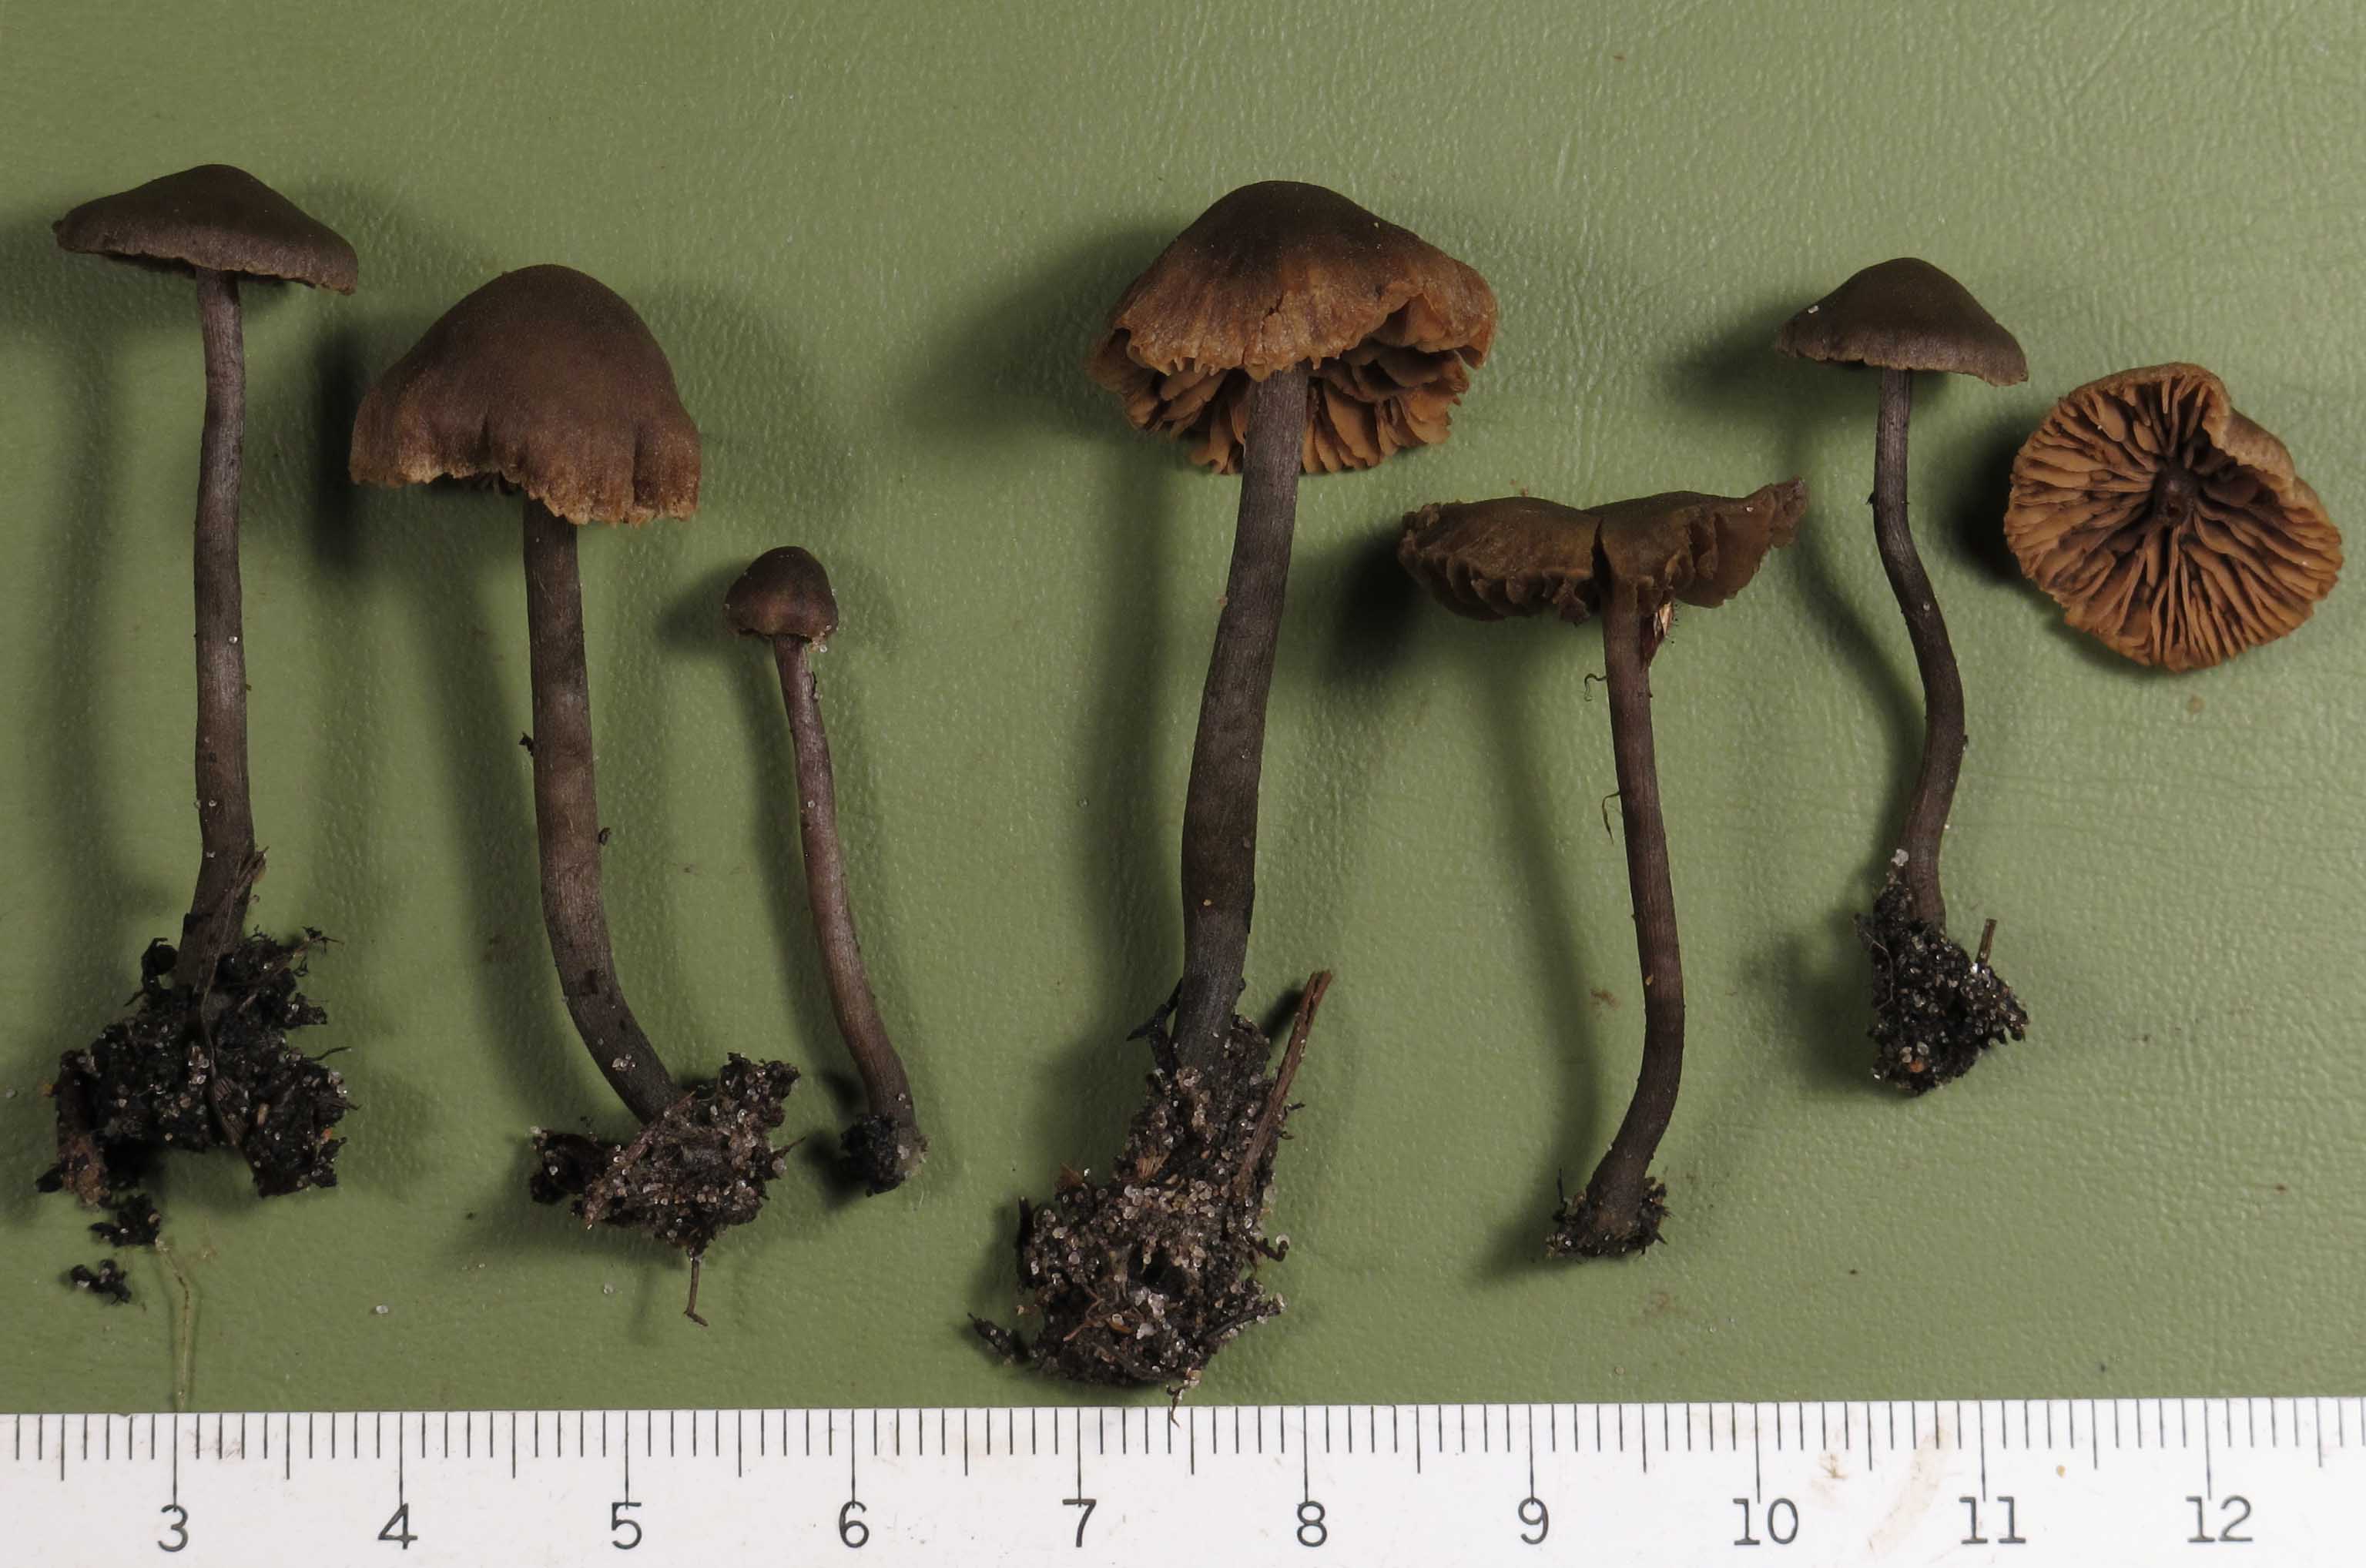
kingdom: Fungi
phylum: Basidiomycota
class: Agaricomycetes
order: Agaricales
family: Hymenogastraceae
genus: Naucoria
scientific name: Naucoria subconspersa
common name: filtet knaphat
